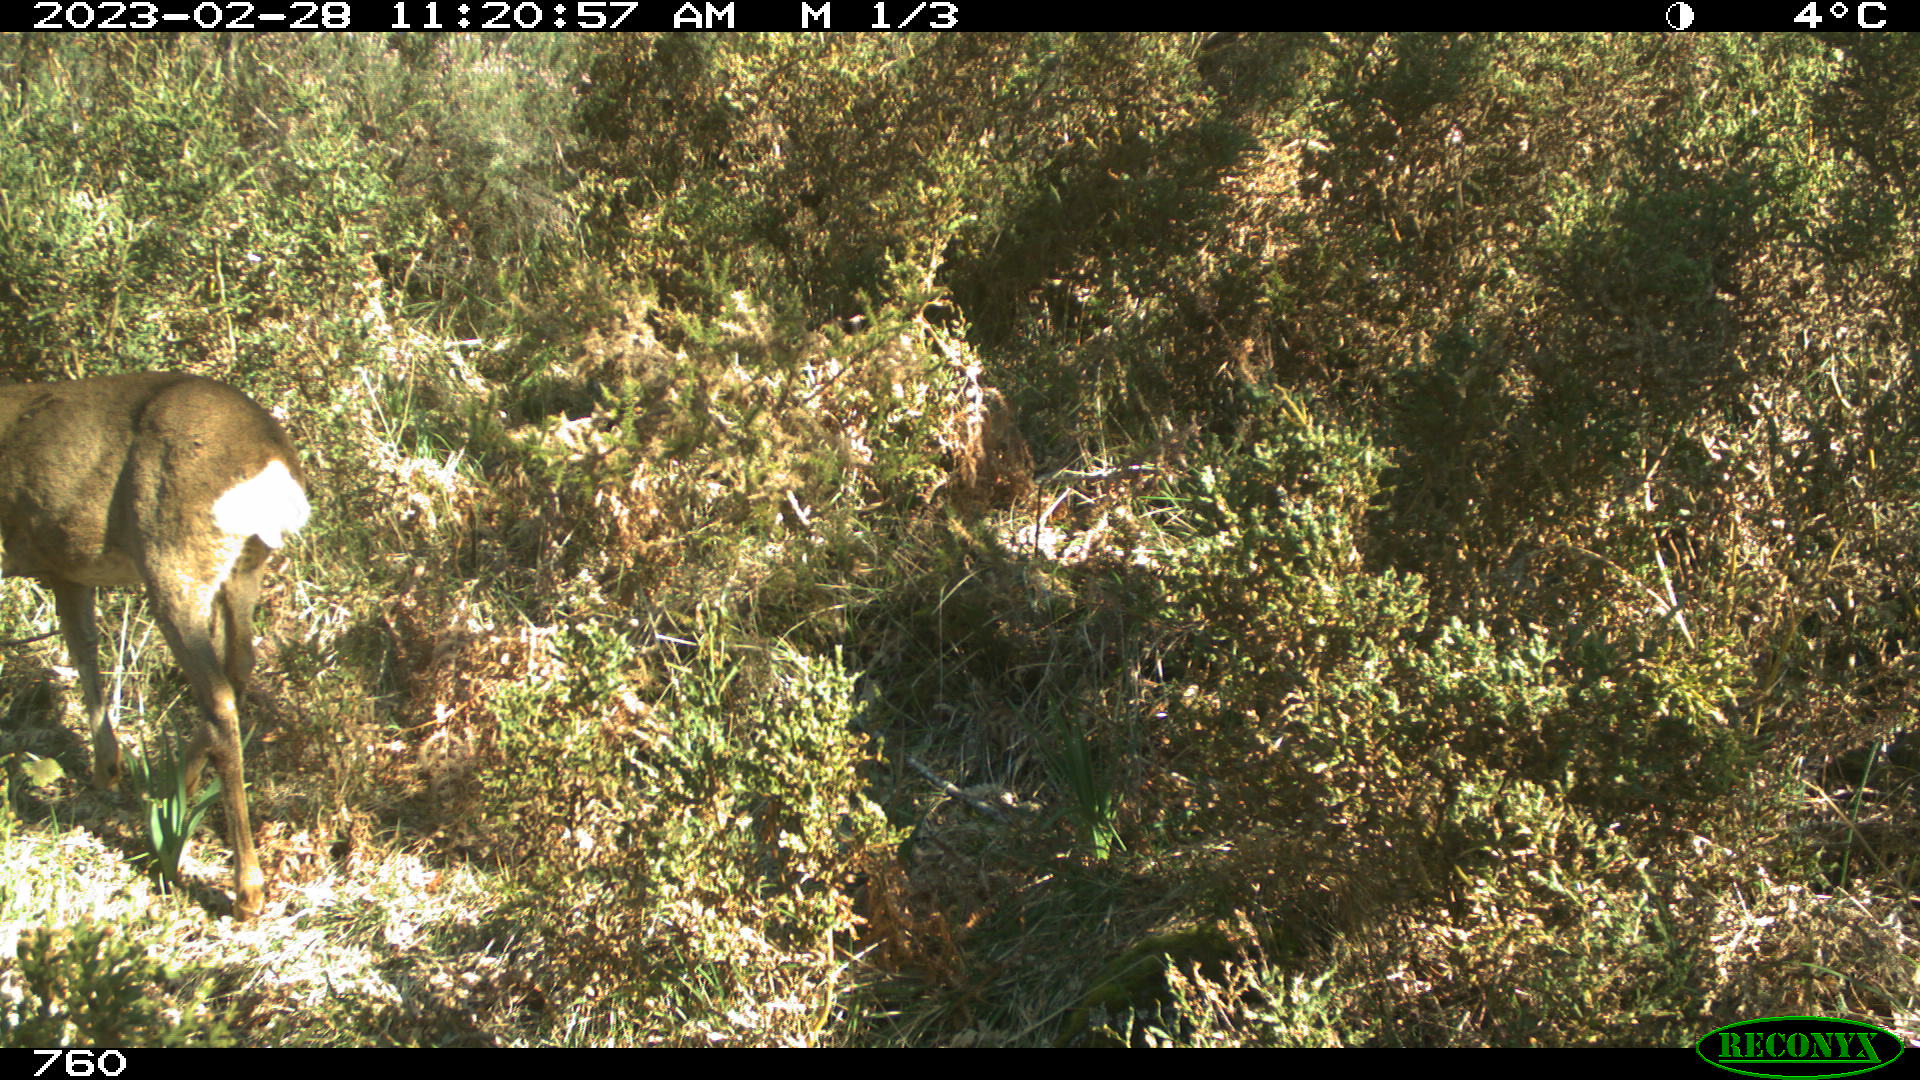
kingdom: Animalia
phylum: Chordata
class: Mammalia
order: Artiodactyla
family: Cervidae
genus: Capreolus
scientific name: Capreolus capreolus
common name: Western roe deer
